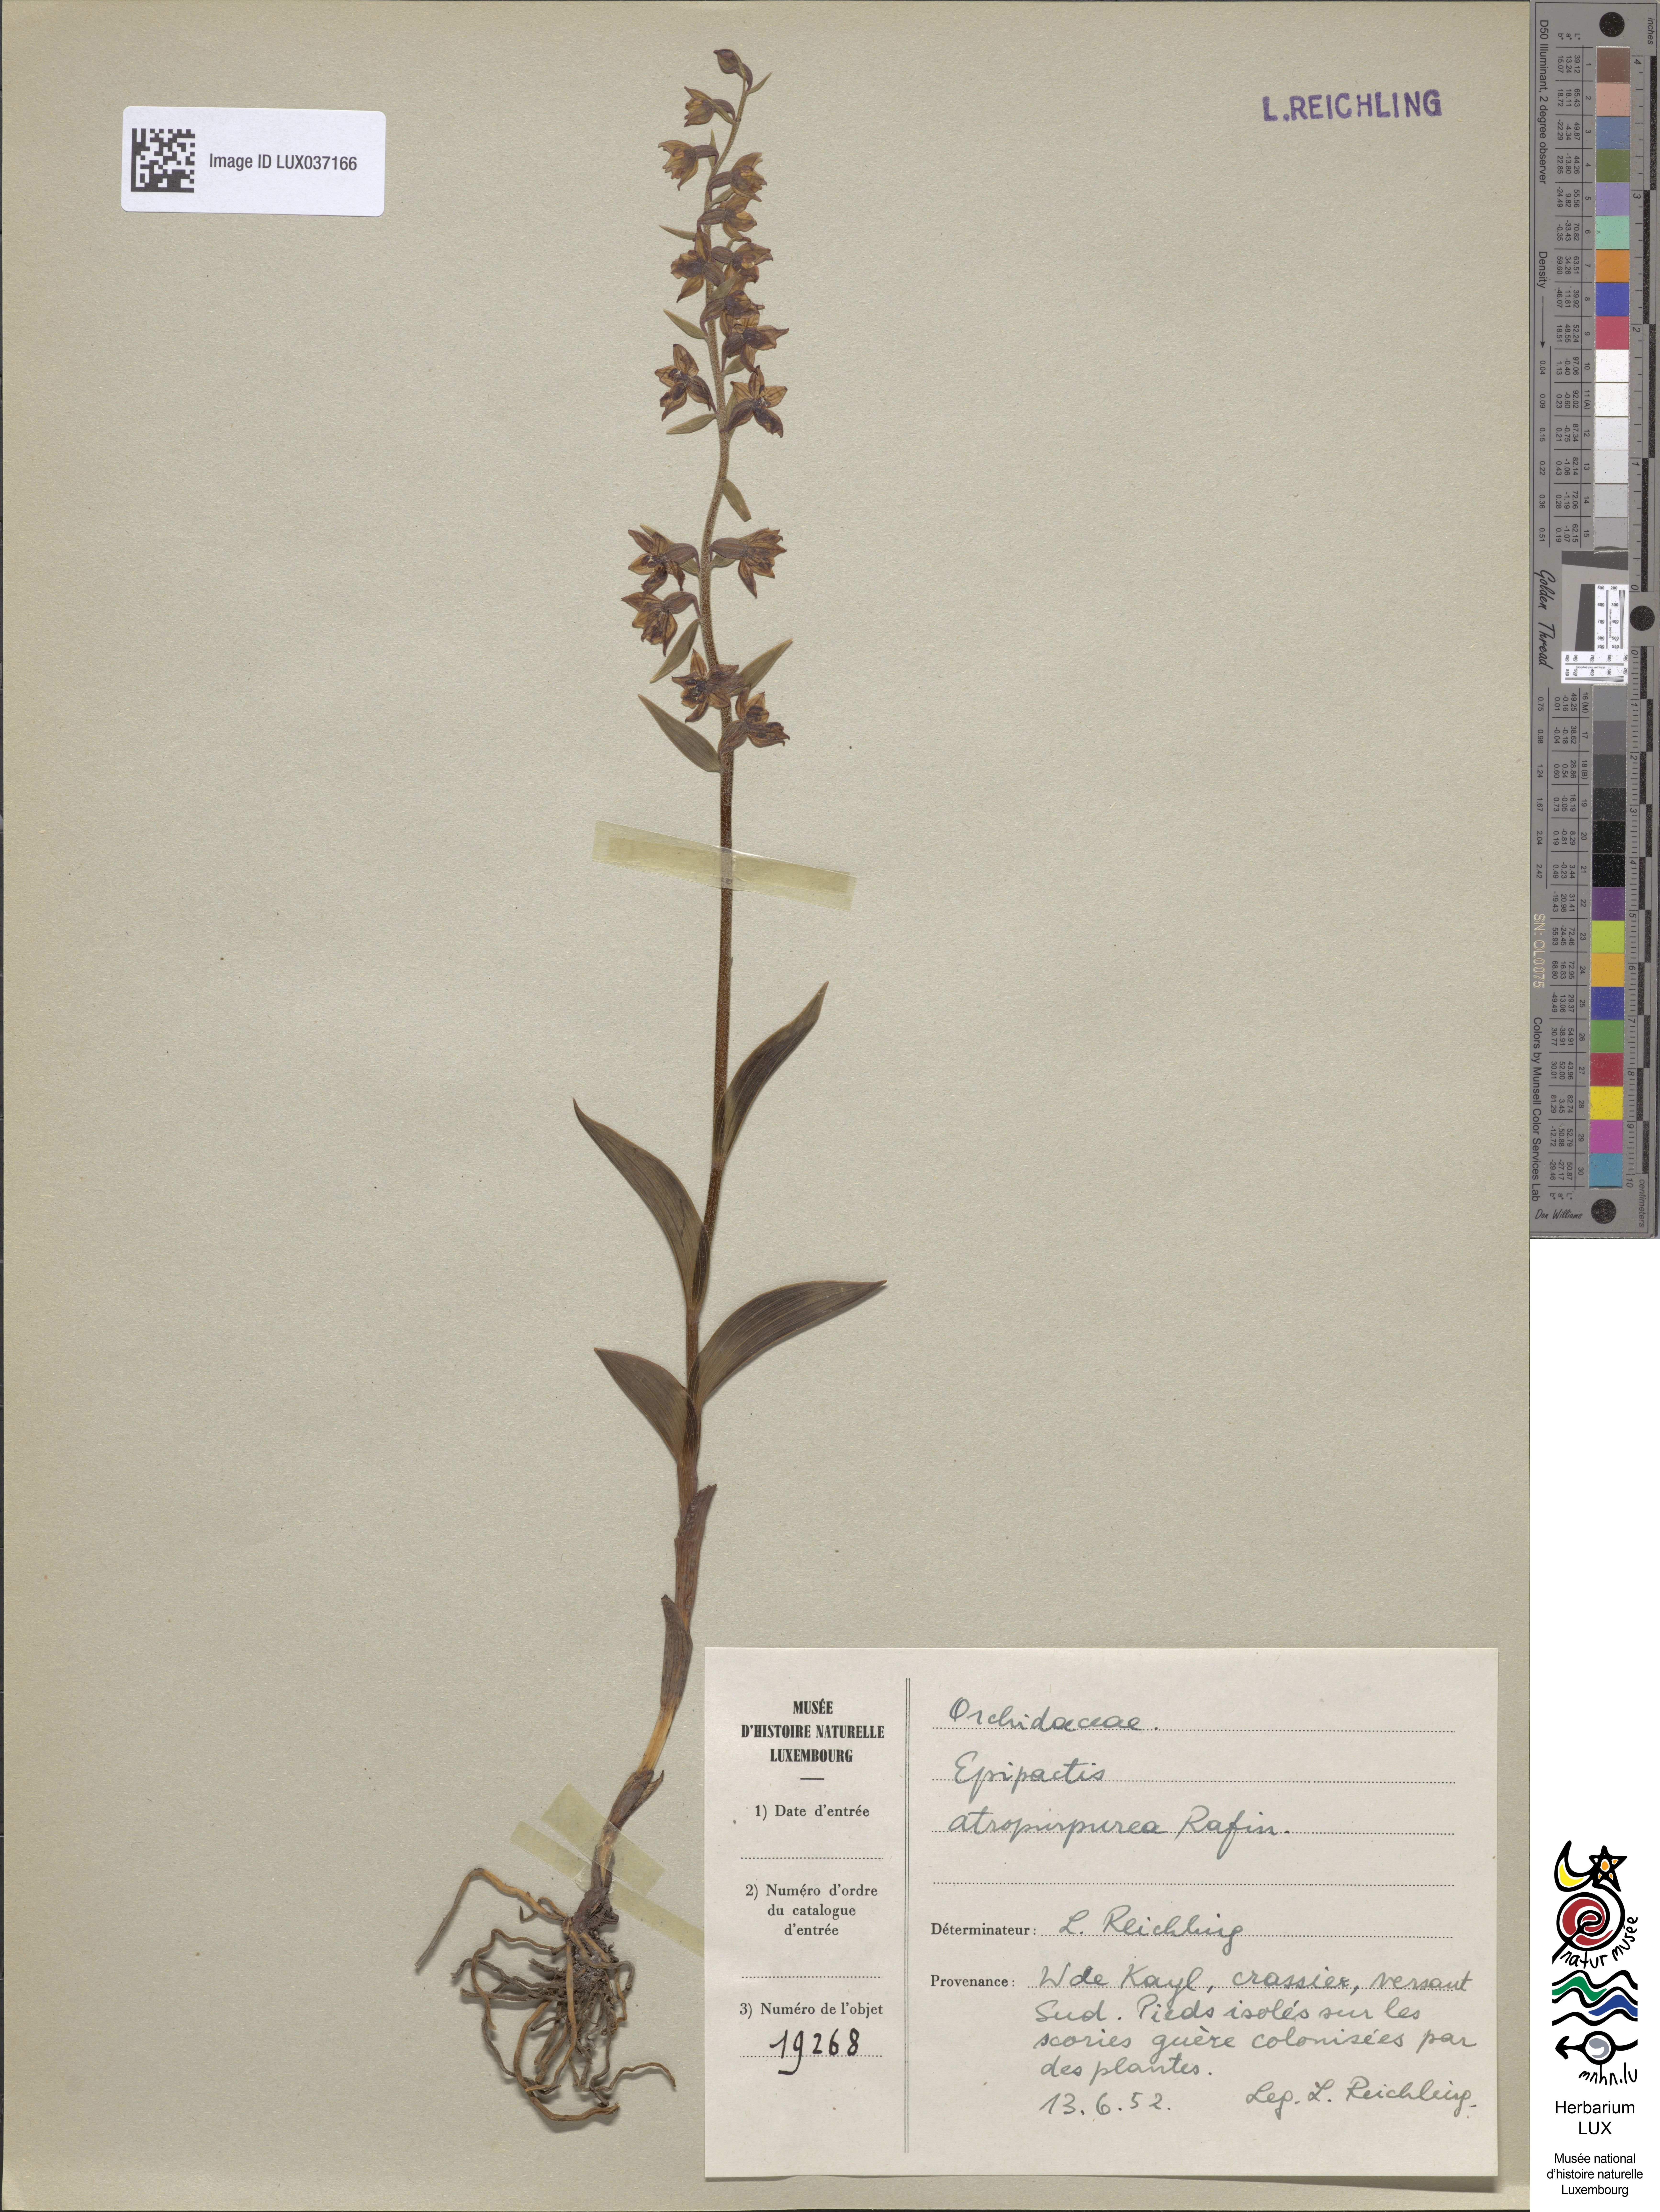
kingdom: Plantae
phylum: Tracheophyta
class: Liliopsida
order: Asparagales
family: Orchidaceae
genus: Epipactis
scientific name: Epipactis atrorubens
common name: Dark-red helleborine
